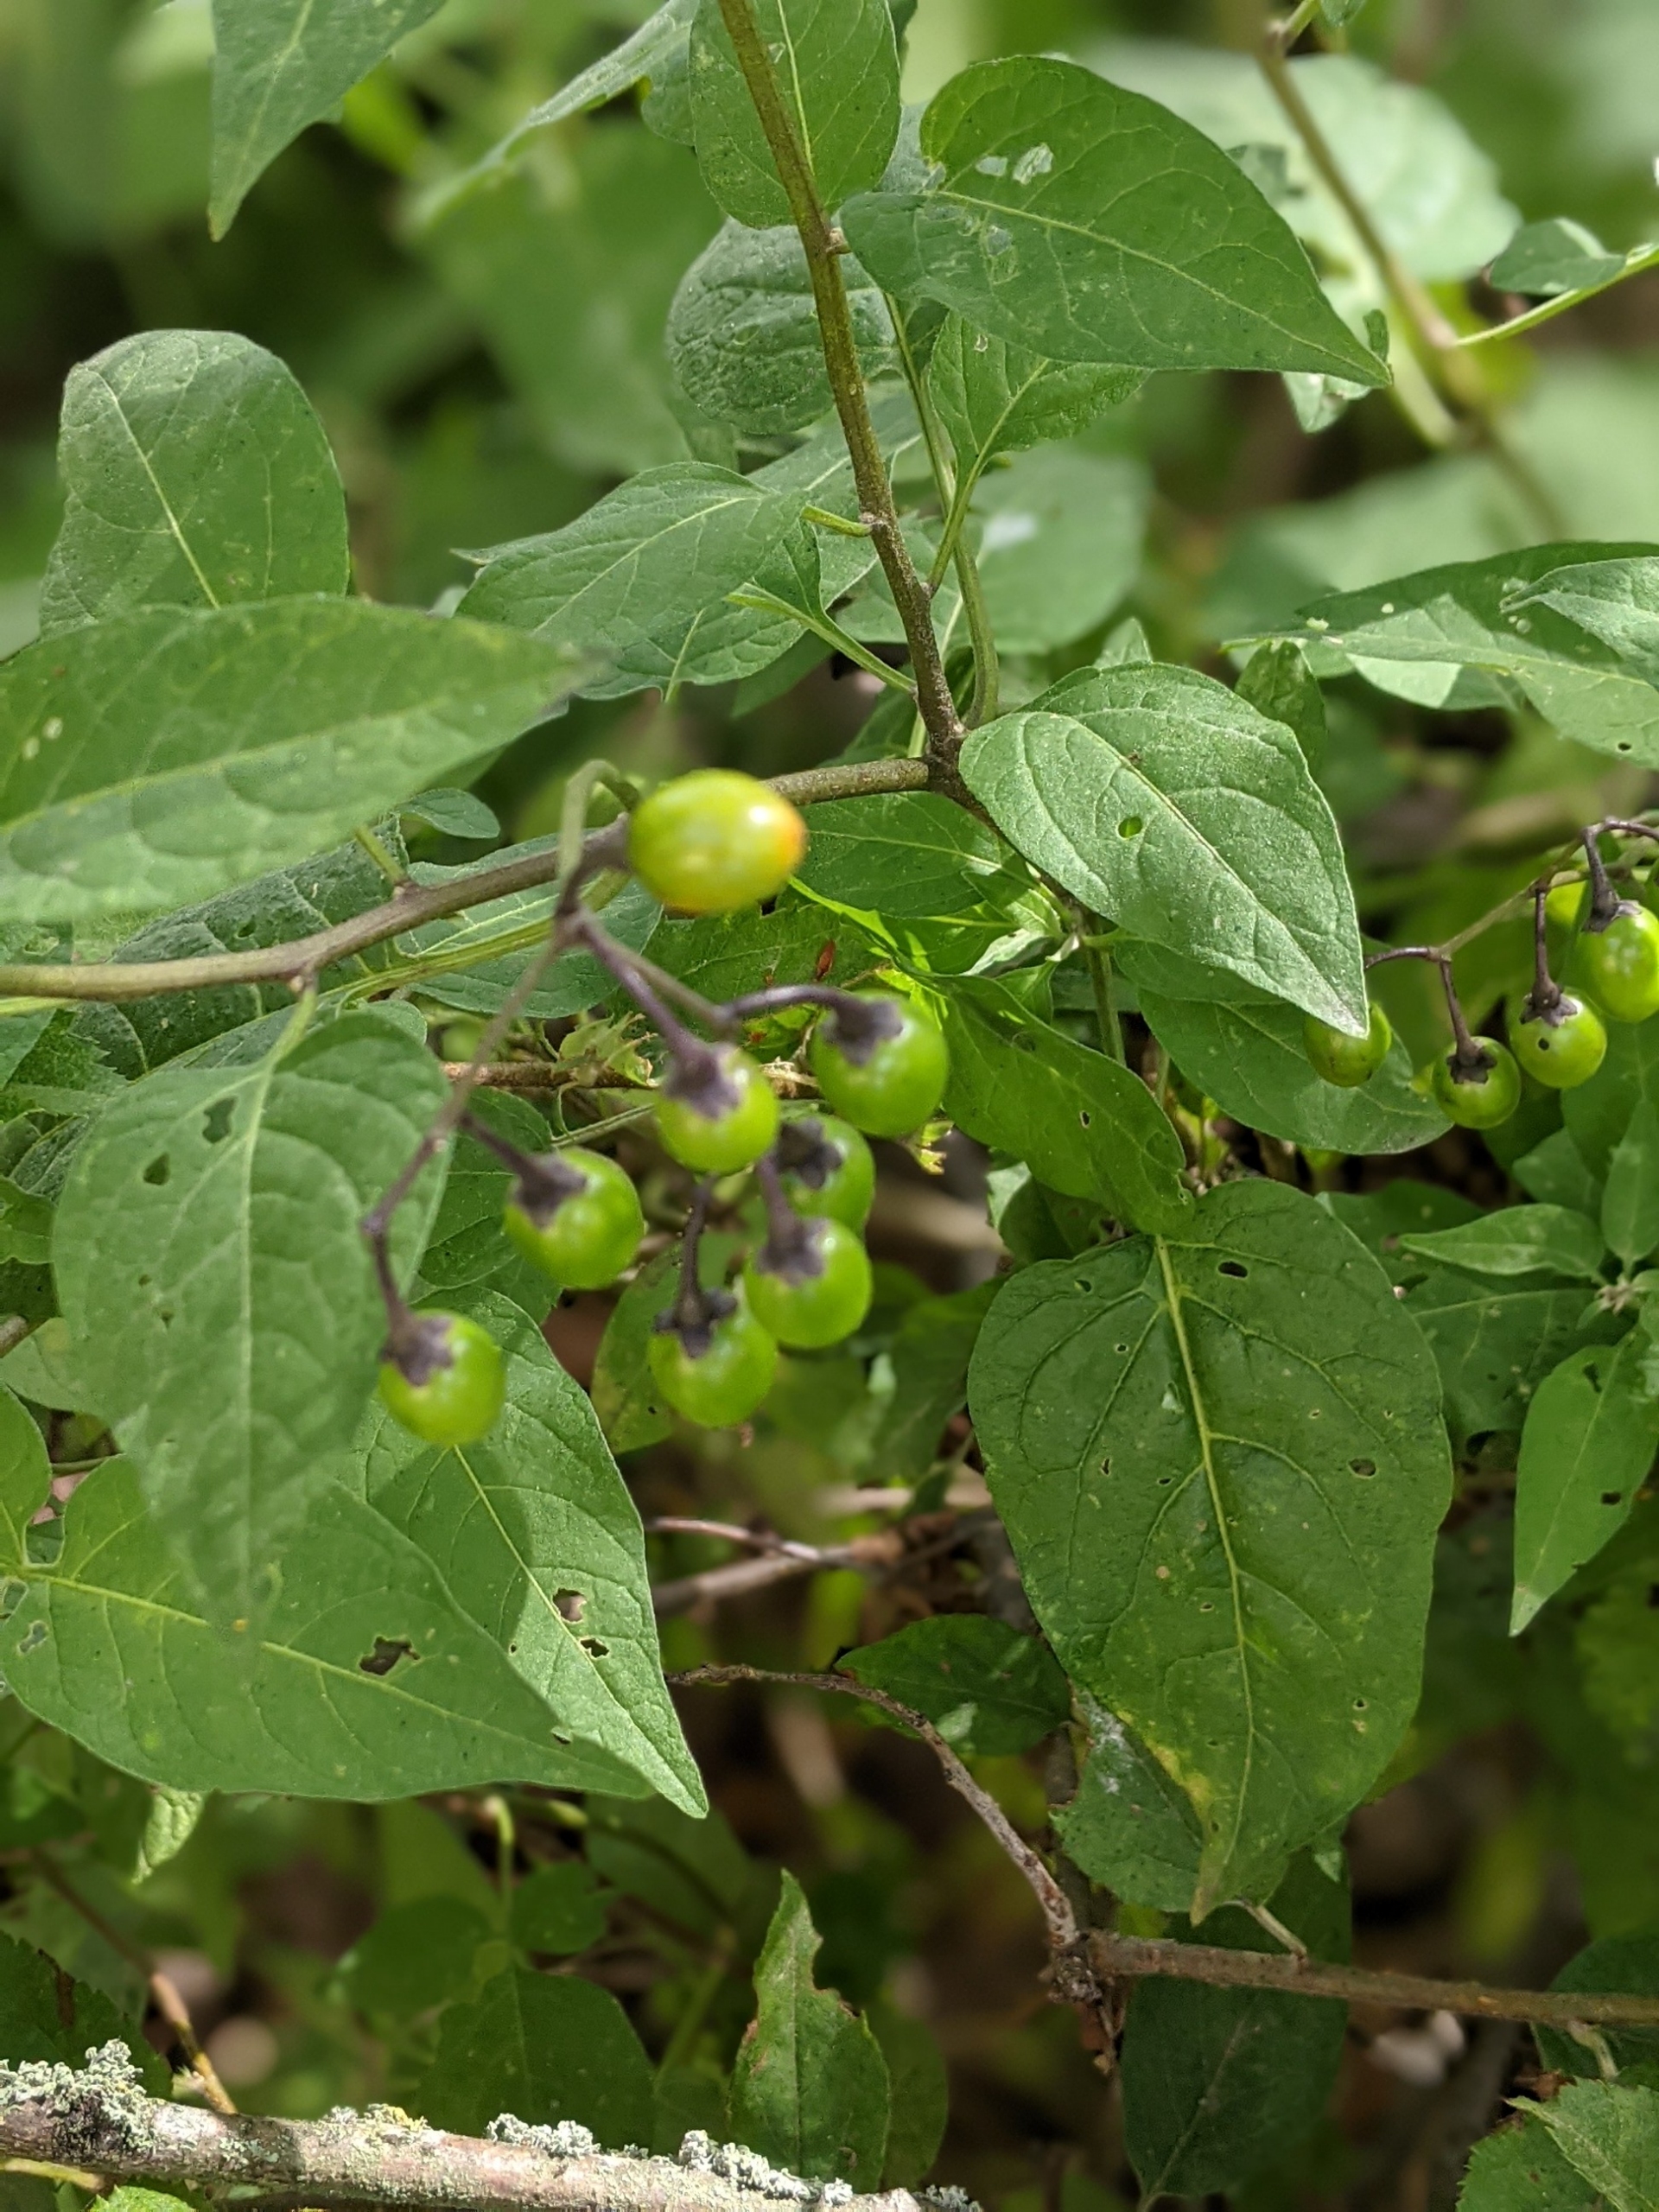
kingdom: Plantae
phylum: Tracheophyta
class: Magnoliopsida
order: Solanales
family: Solanaceae
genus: Solanum
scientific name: Solanum dulcamara
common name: Bittersød natskygge
